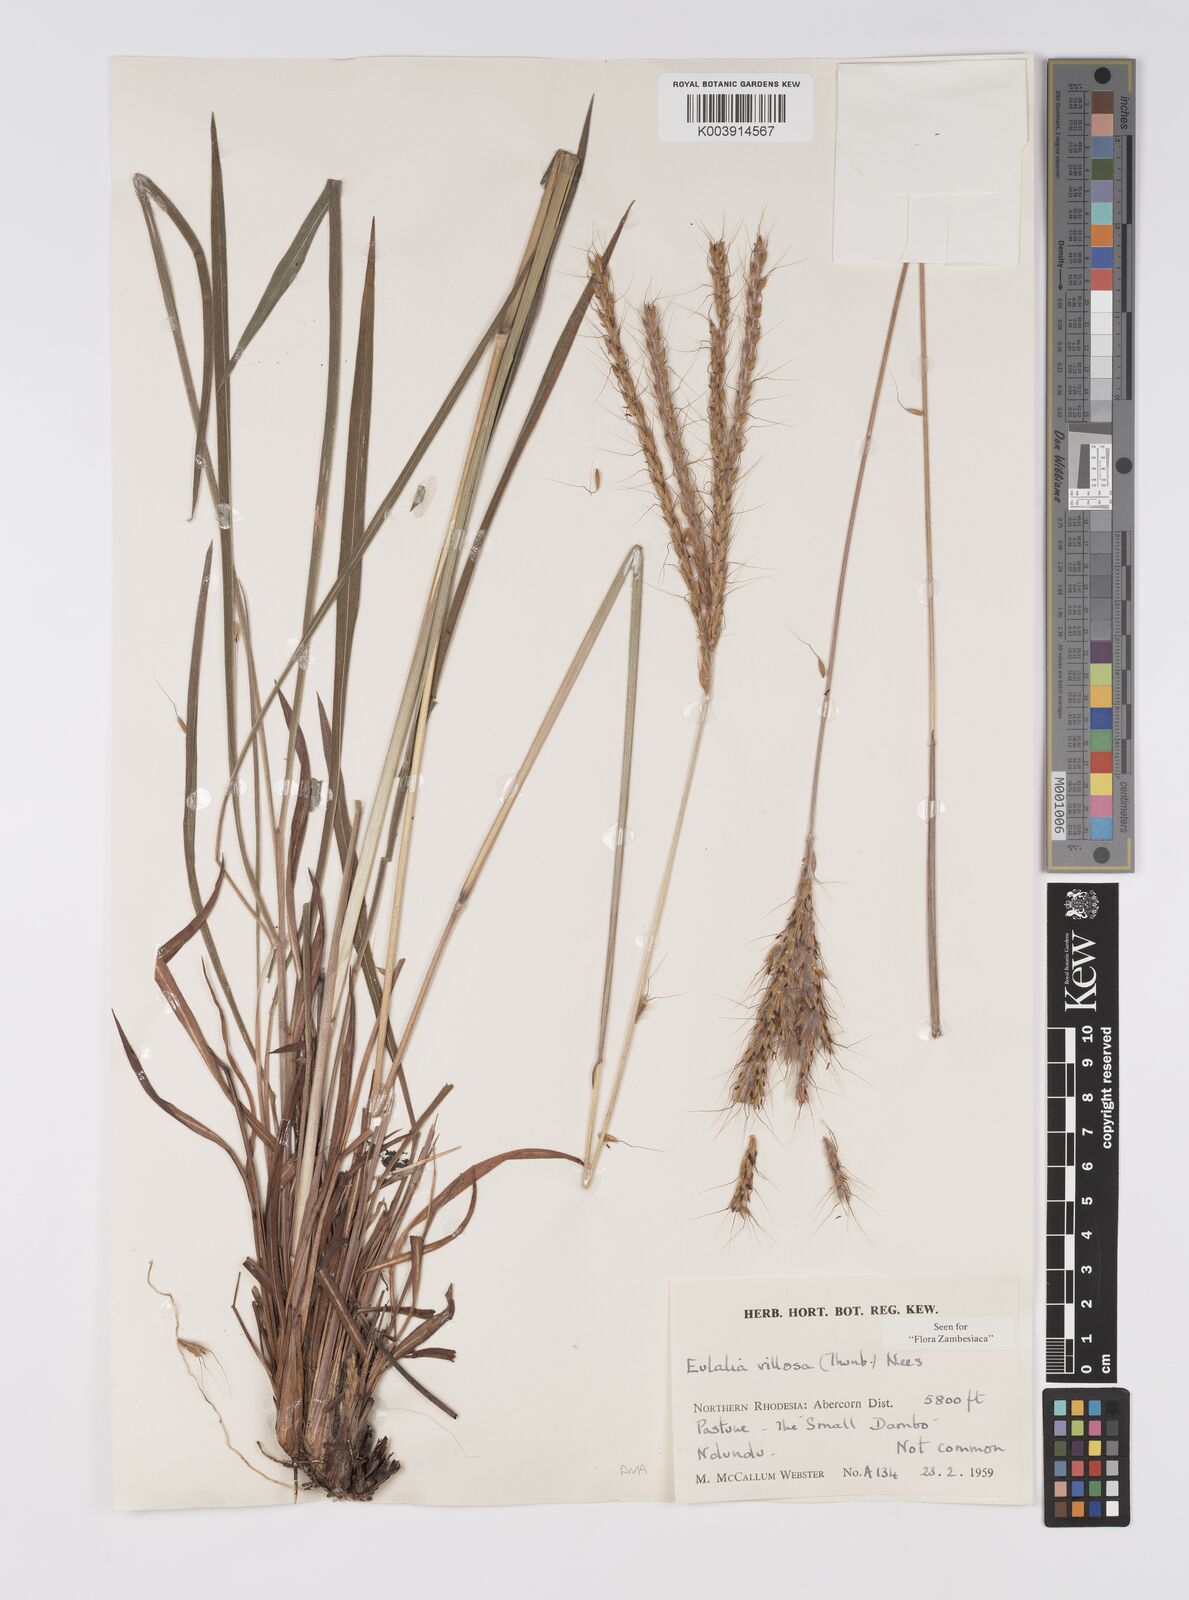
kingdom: Plantae
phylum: Tracheophyta
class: Liliopsida
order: Poales
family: Poaceae
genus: Eulalia
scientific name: Eulalia villosa
